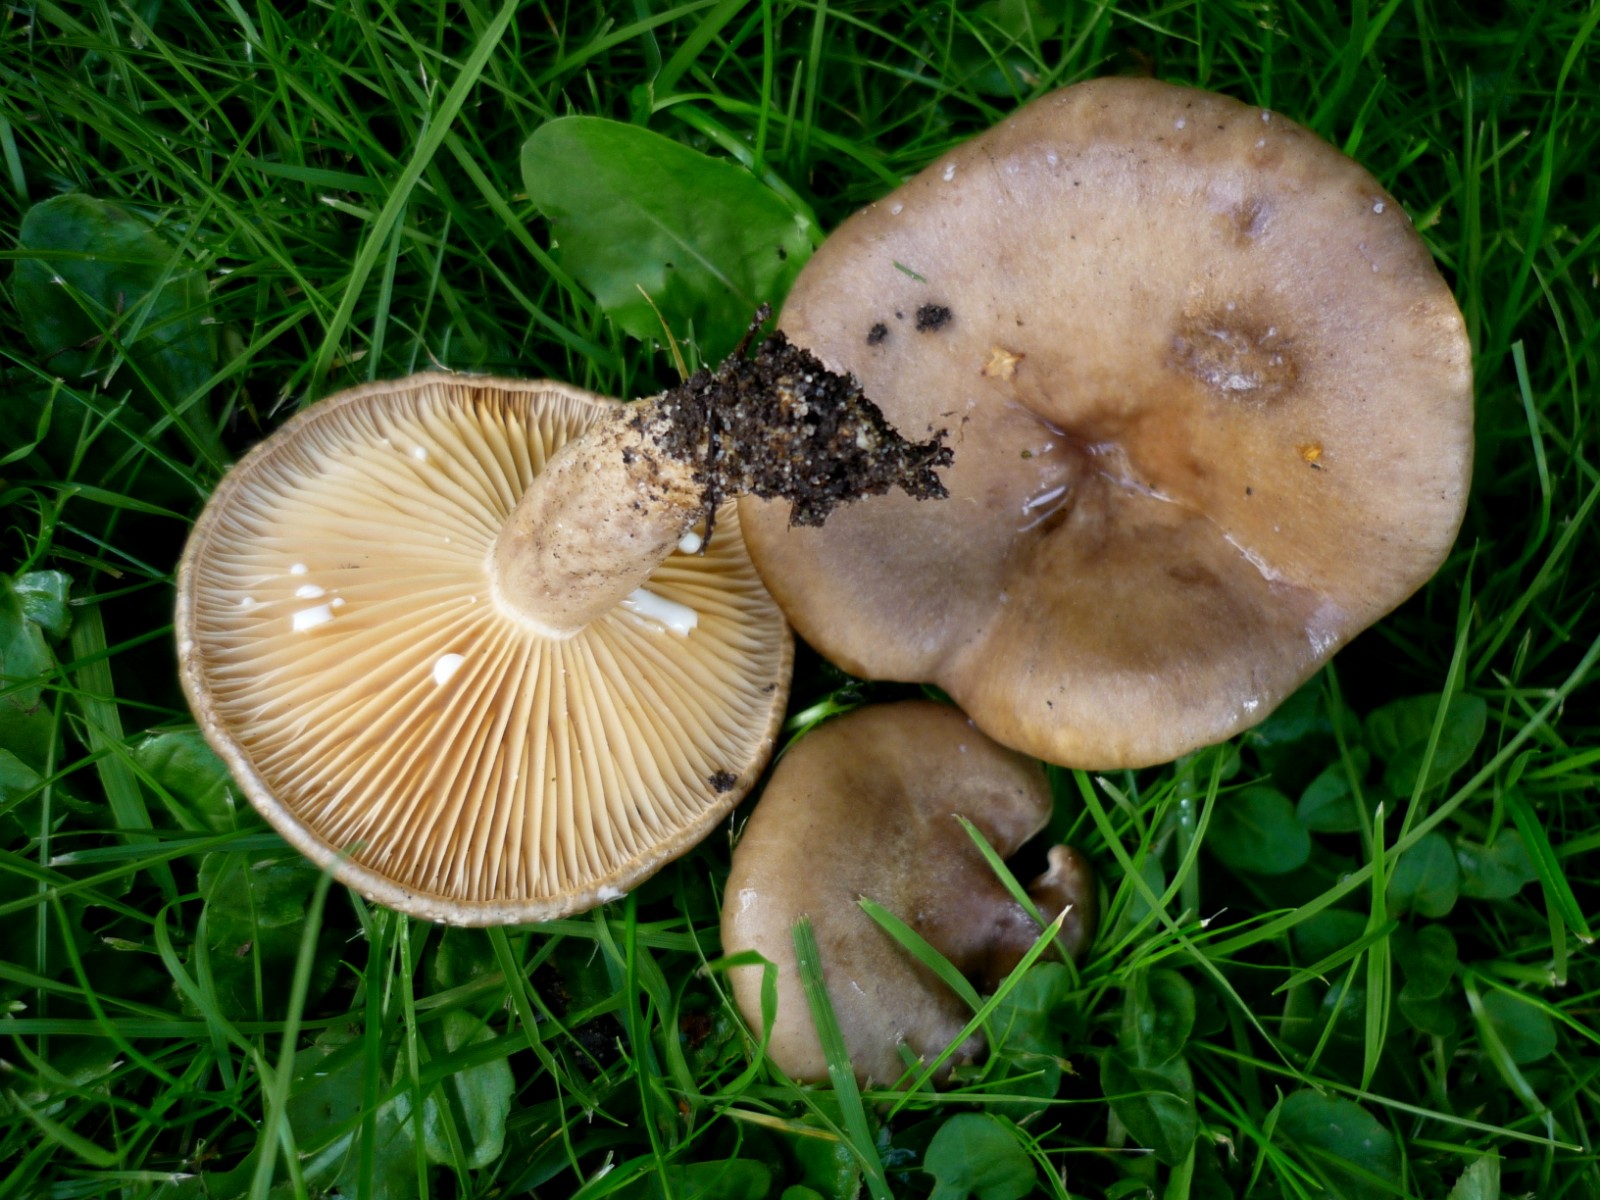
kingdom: Fungi
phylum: Basidiomycota
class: Agaricomycetes
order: Russulales
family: Russulaceae
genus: Lactarius
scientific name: Lactarius pyrogalus
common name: hassel-mælkehat
